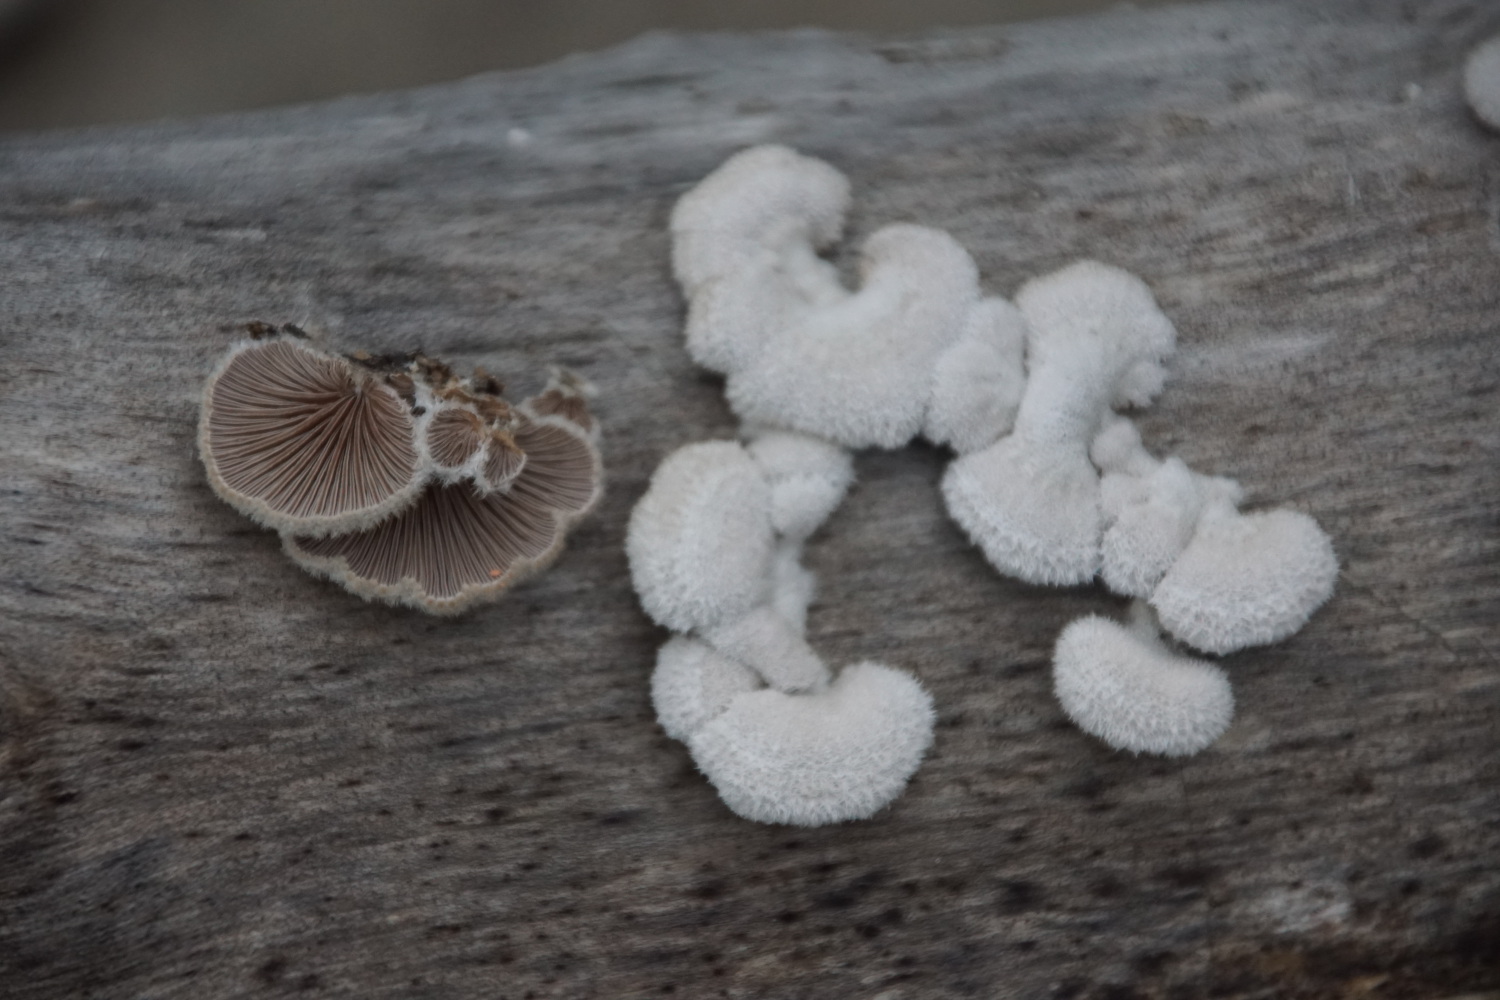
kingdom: Fungi
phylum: Basidiomycota
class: Agaricomycetes
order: Agaricales
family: Schizophyllaceae
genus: Schizophyllum
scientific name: Schizophyllum commune
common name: kløvblad
